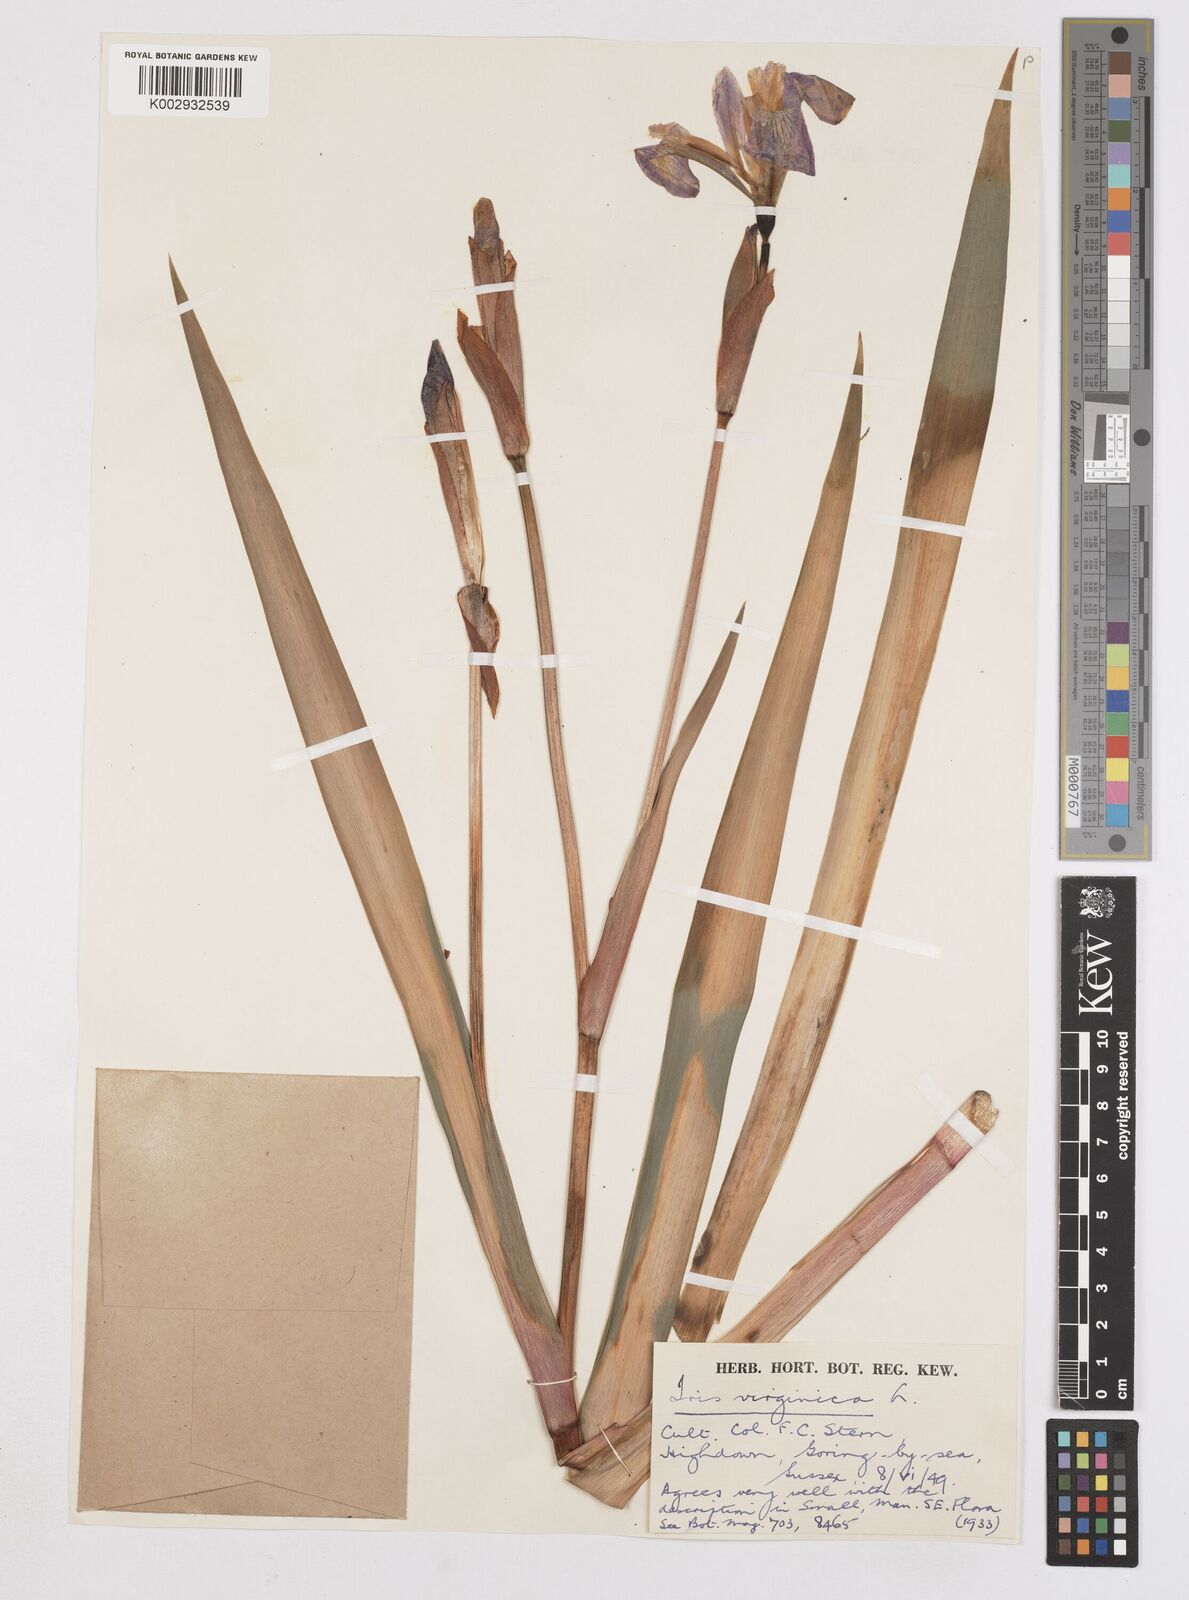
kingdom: Plantae
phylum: Tracheophyta
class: Liliopsida
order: Asparagales
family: Iridaceae
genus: Iris
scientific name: Iris versicolor
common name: Purple iris
